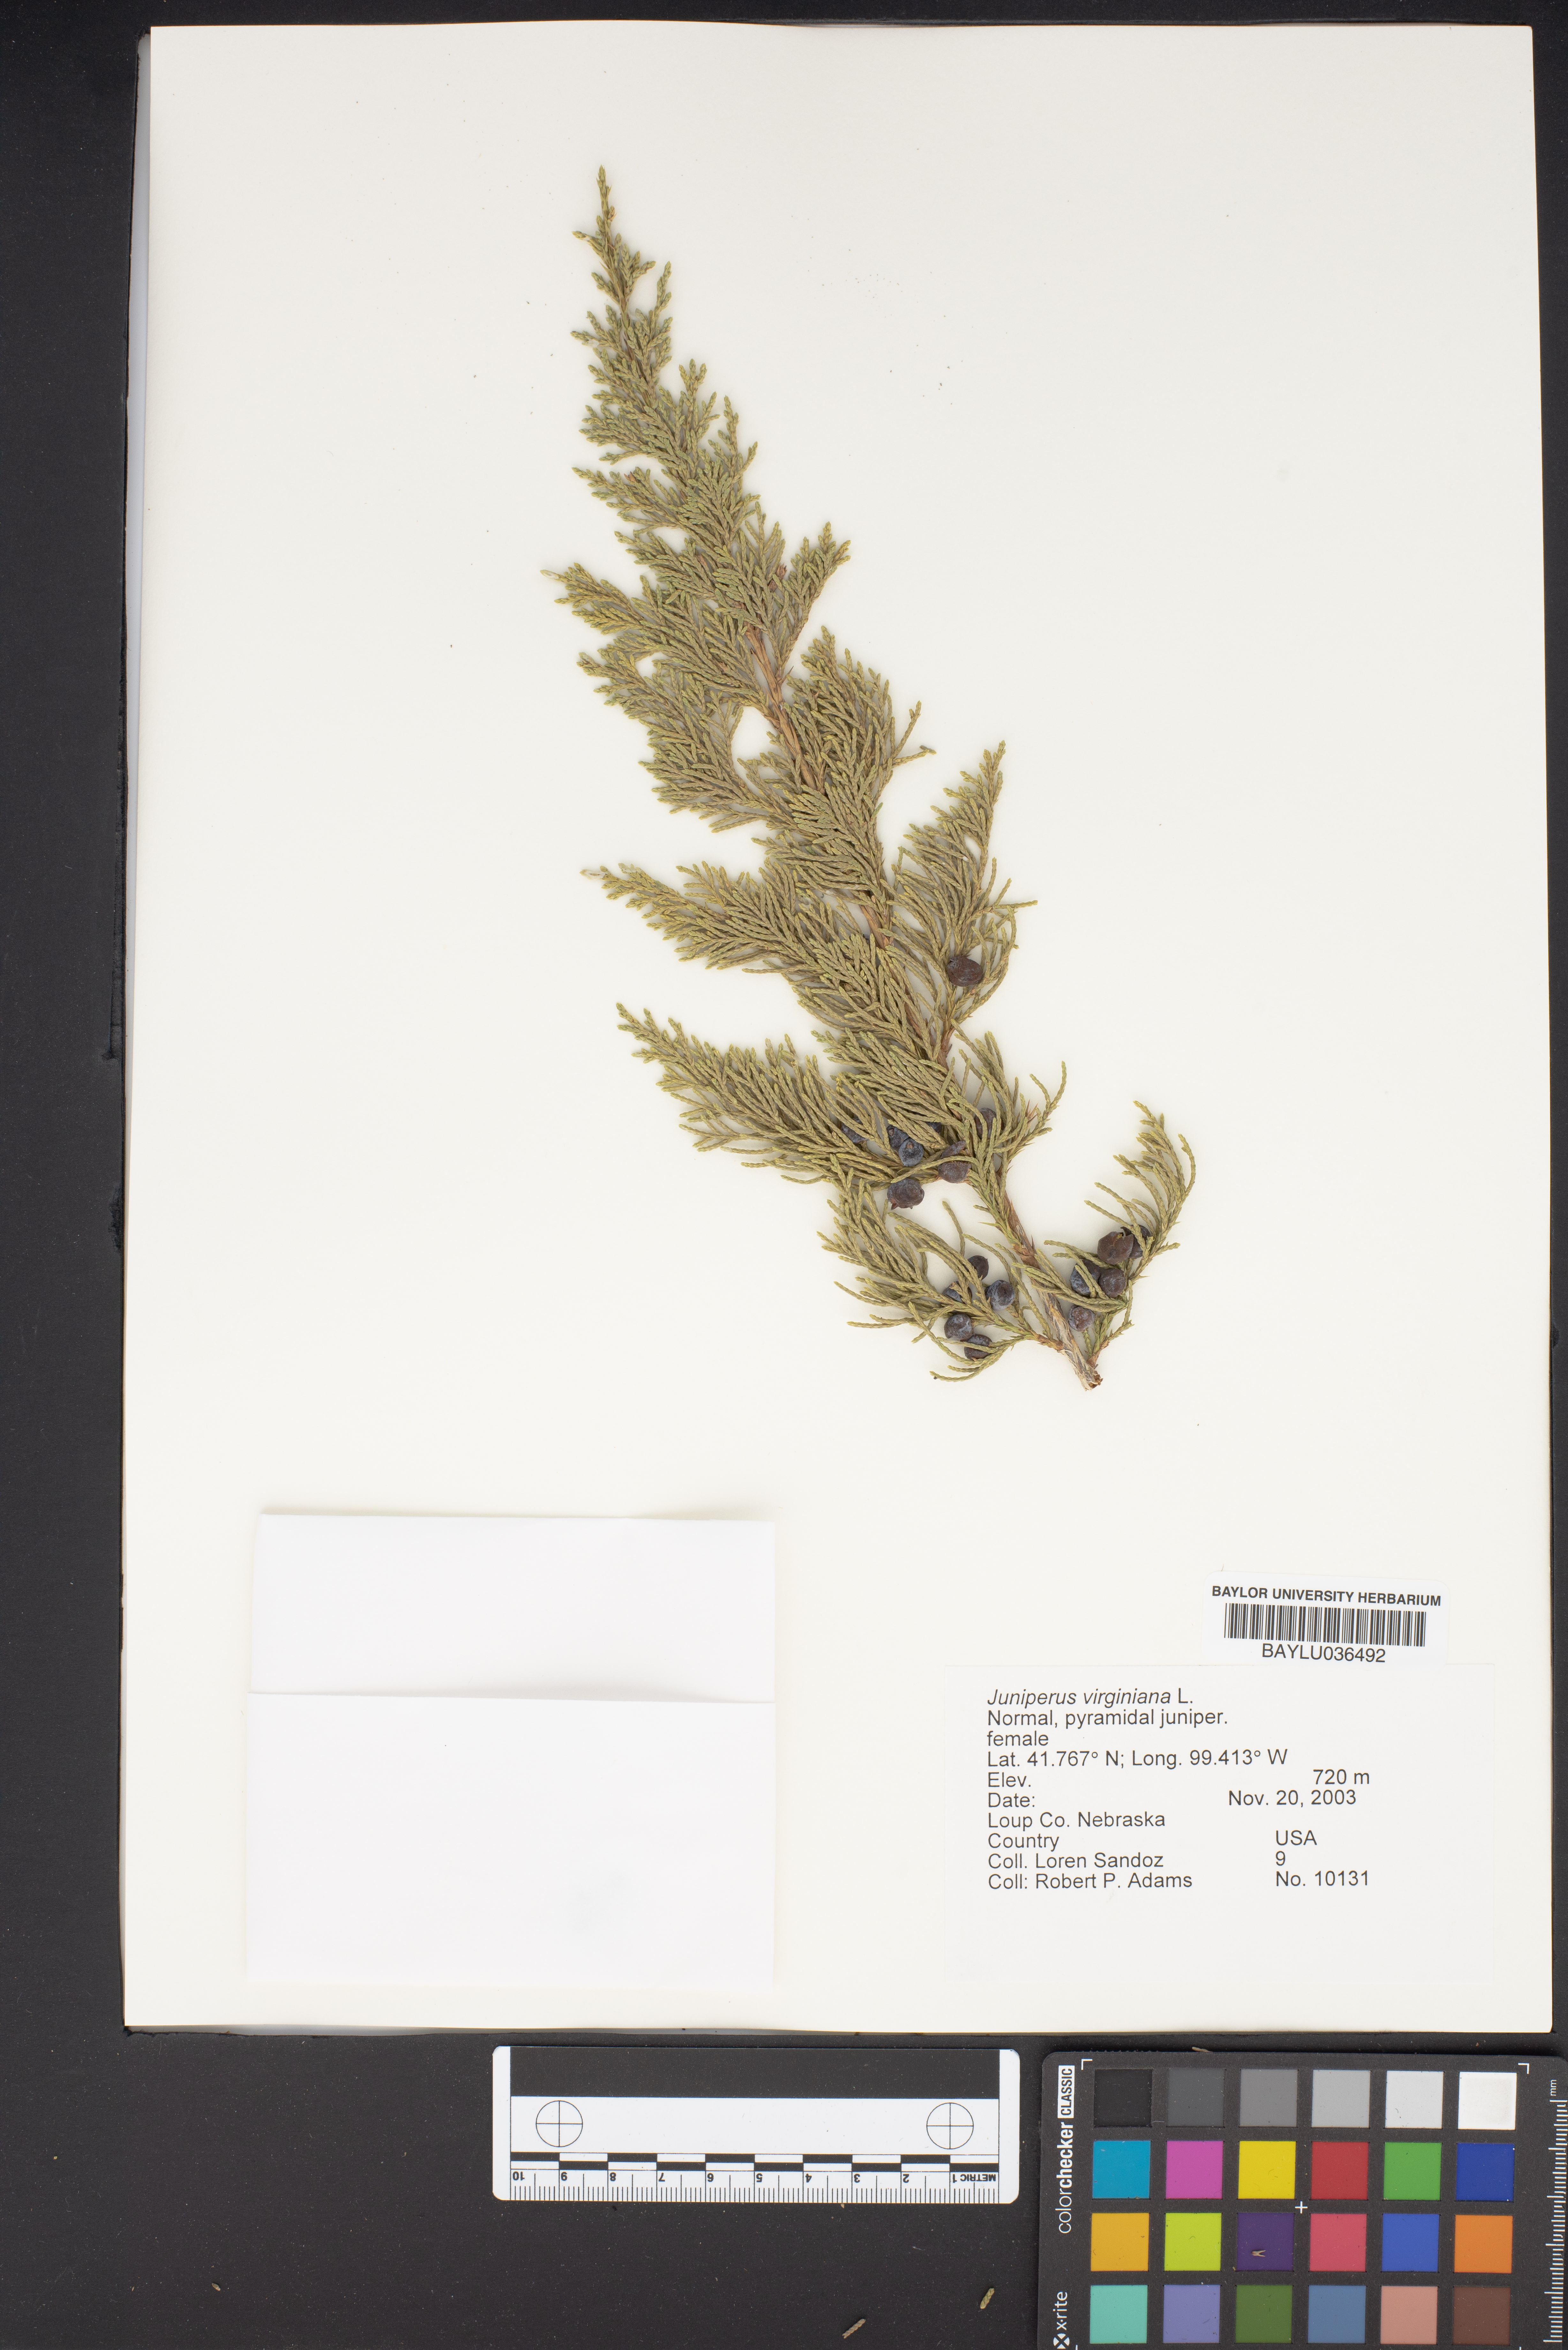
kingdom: Plantae
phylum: Tracheophyta
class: Pinopsida
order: Pinales
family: Cupressaceae
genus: Juniperus
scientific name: Juniperus virginiana
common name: Red juniper
